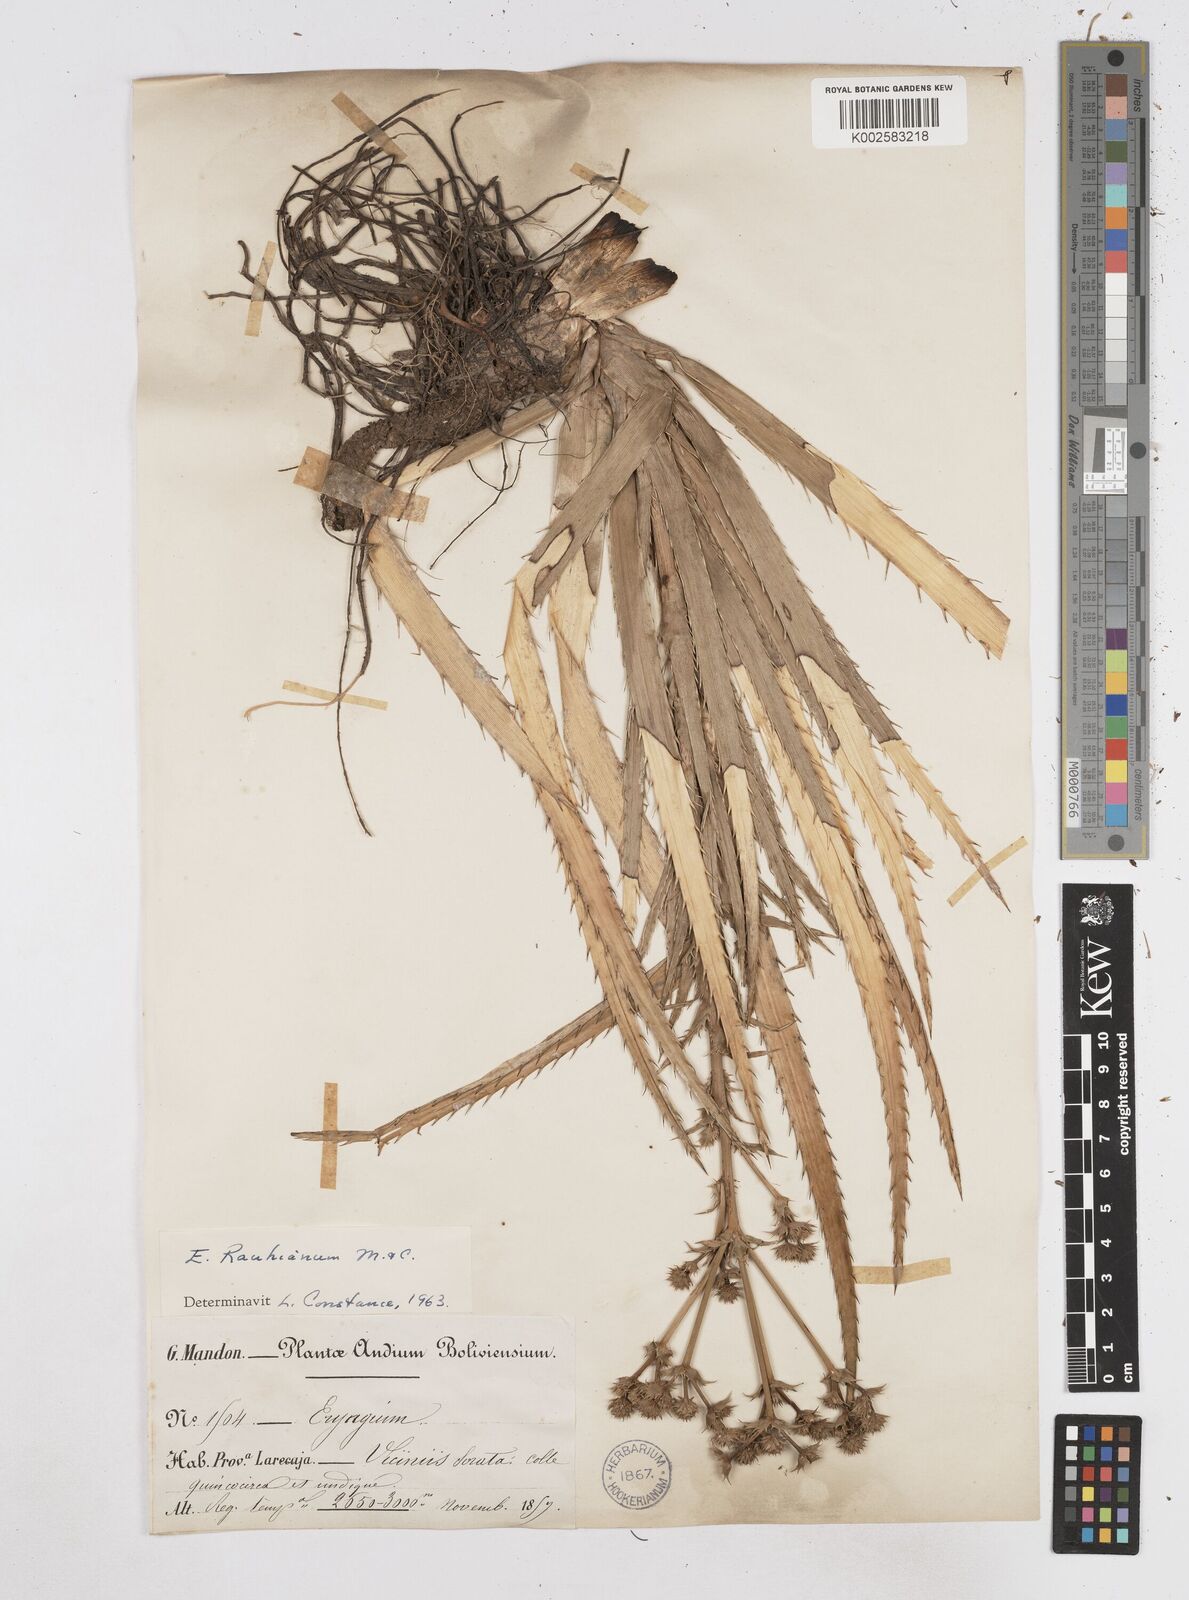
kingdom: Plantae
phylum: Tracheophyta
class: Magnoliopsida
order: Apiales
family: Apiaceae
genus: Eryngium
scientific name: Eryngium eurycephalum
